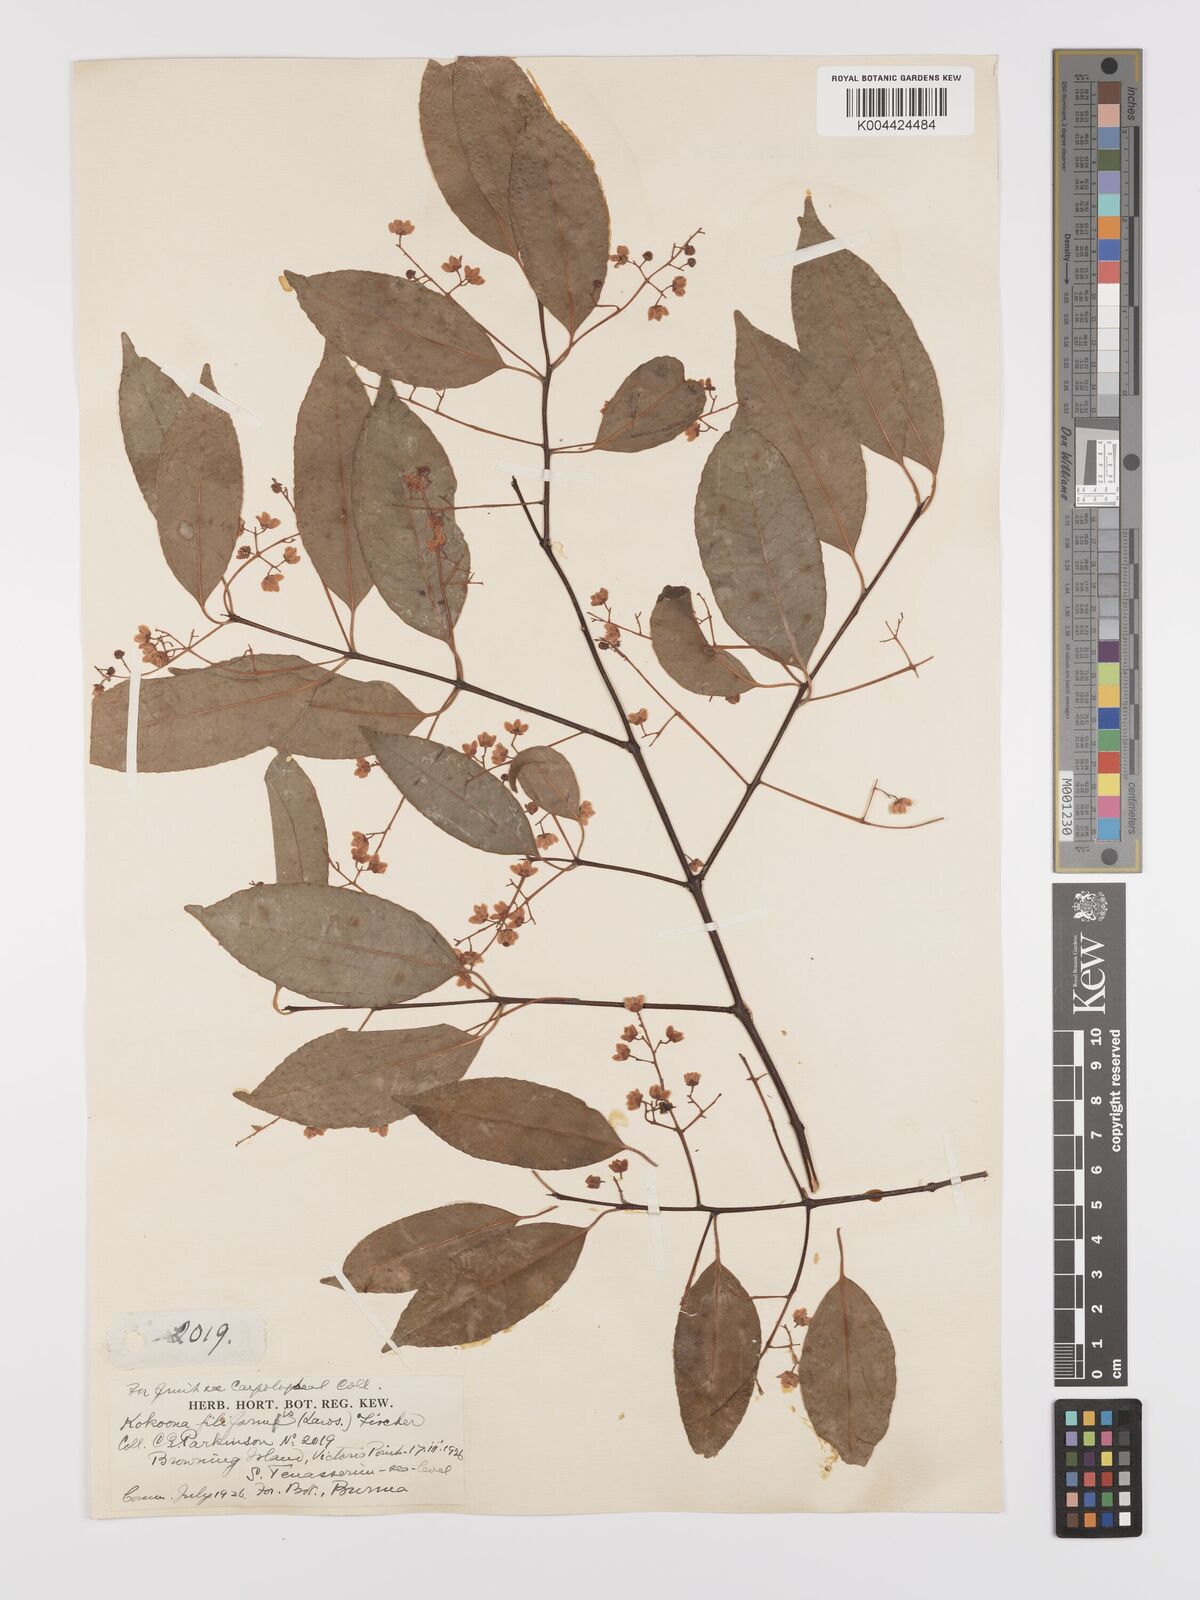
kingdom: Plantae
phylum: Tracheophyta
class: Magnoliopsida
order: Celastrales
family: Celastraceae
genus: Kokoona
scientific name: Kokoona filiformis
